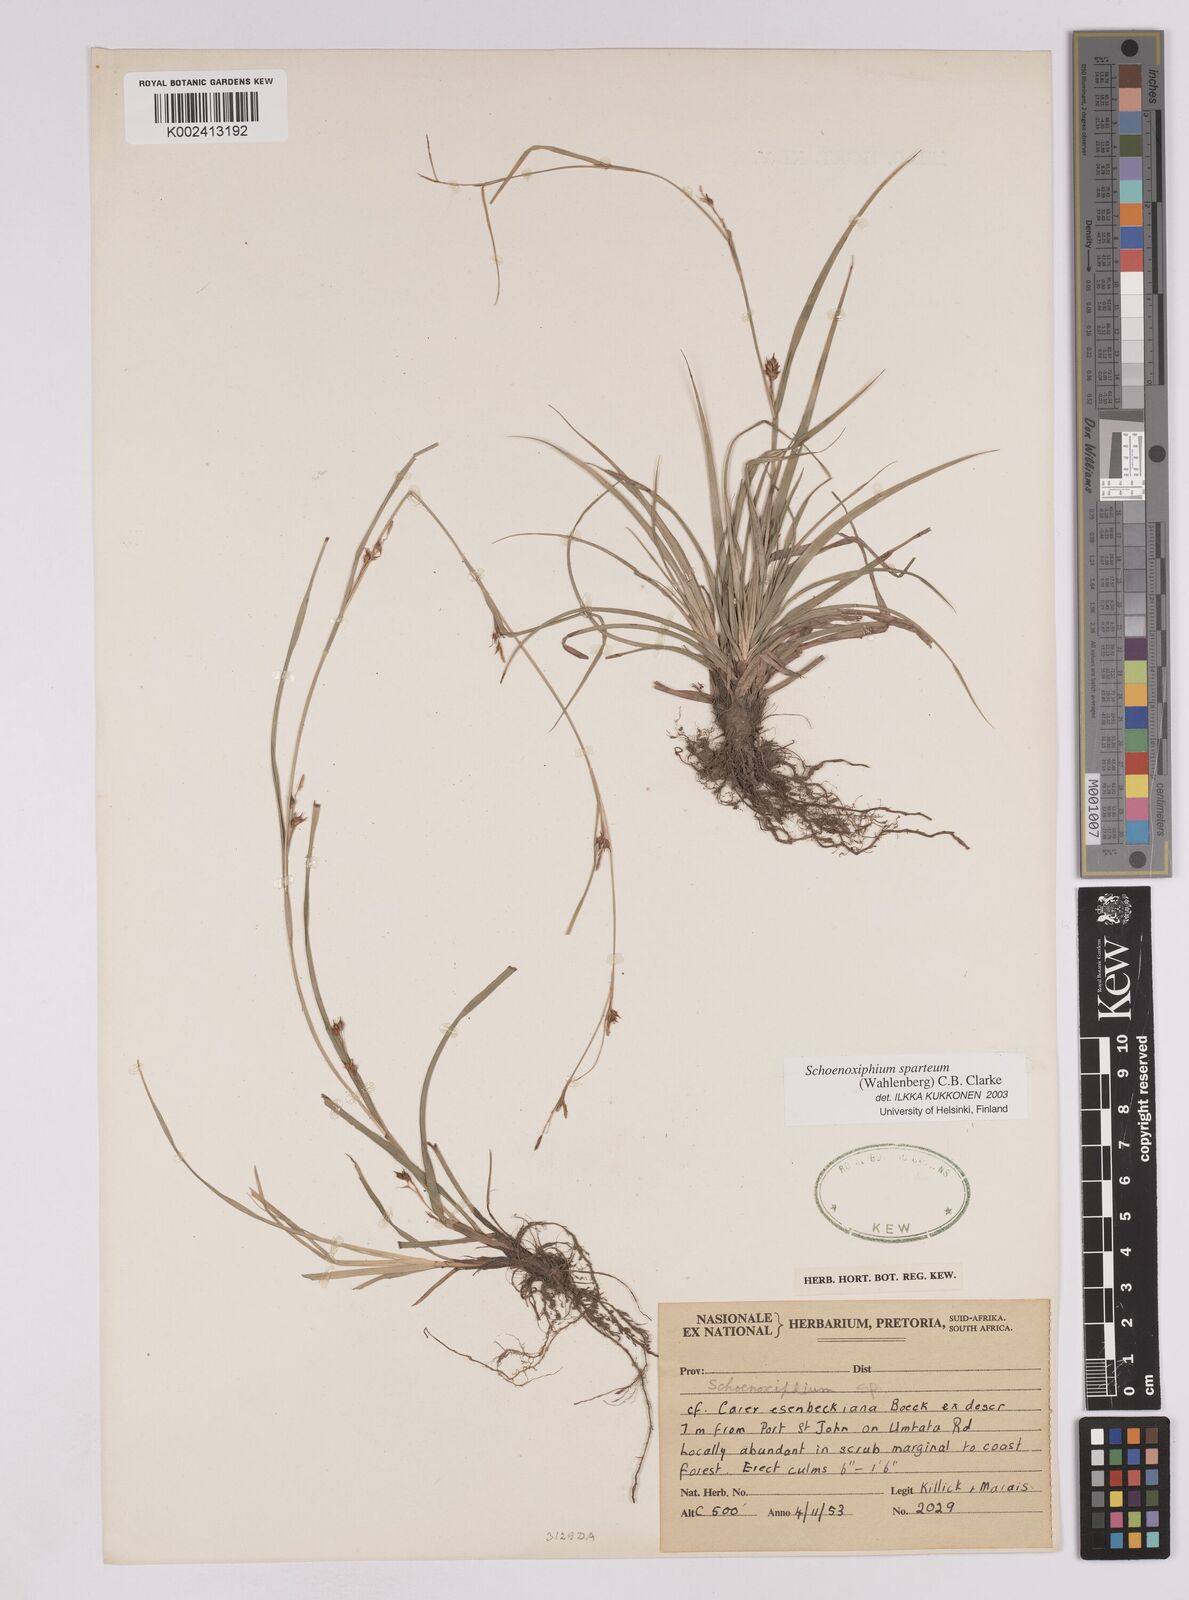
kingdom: Plantae
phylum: Tracheophyta
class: Liliopsida
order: Poales
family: Cyperaceae
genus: Carex
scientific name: Carex spartea
